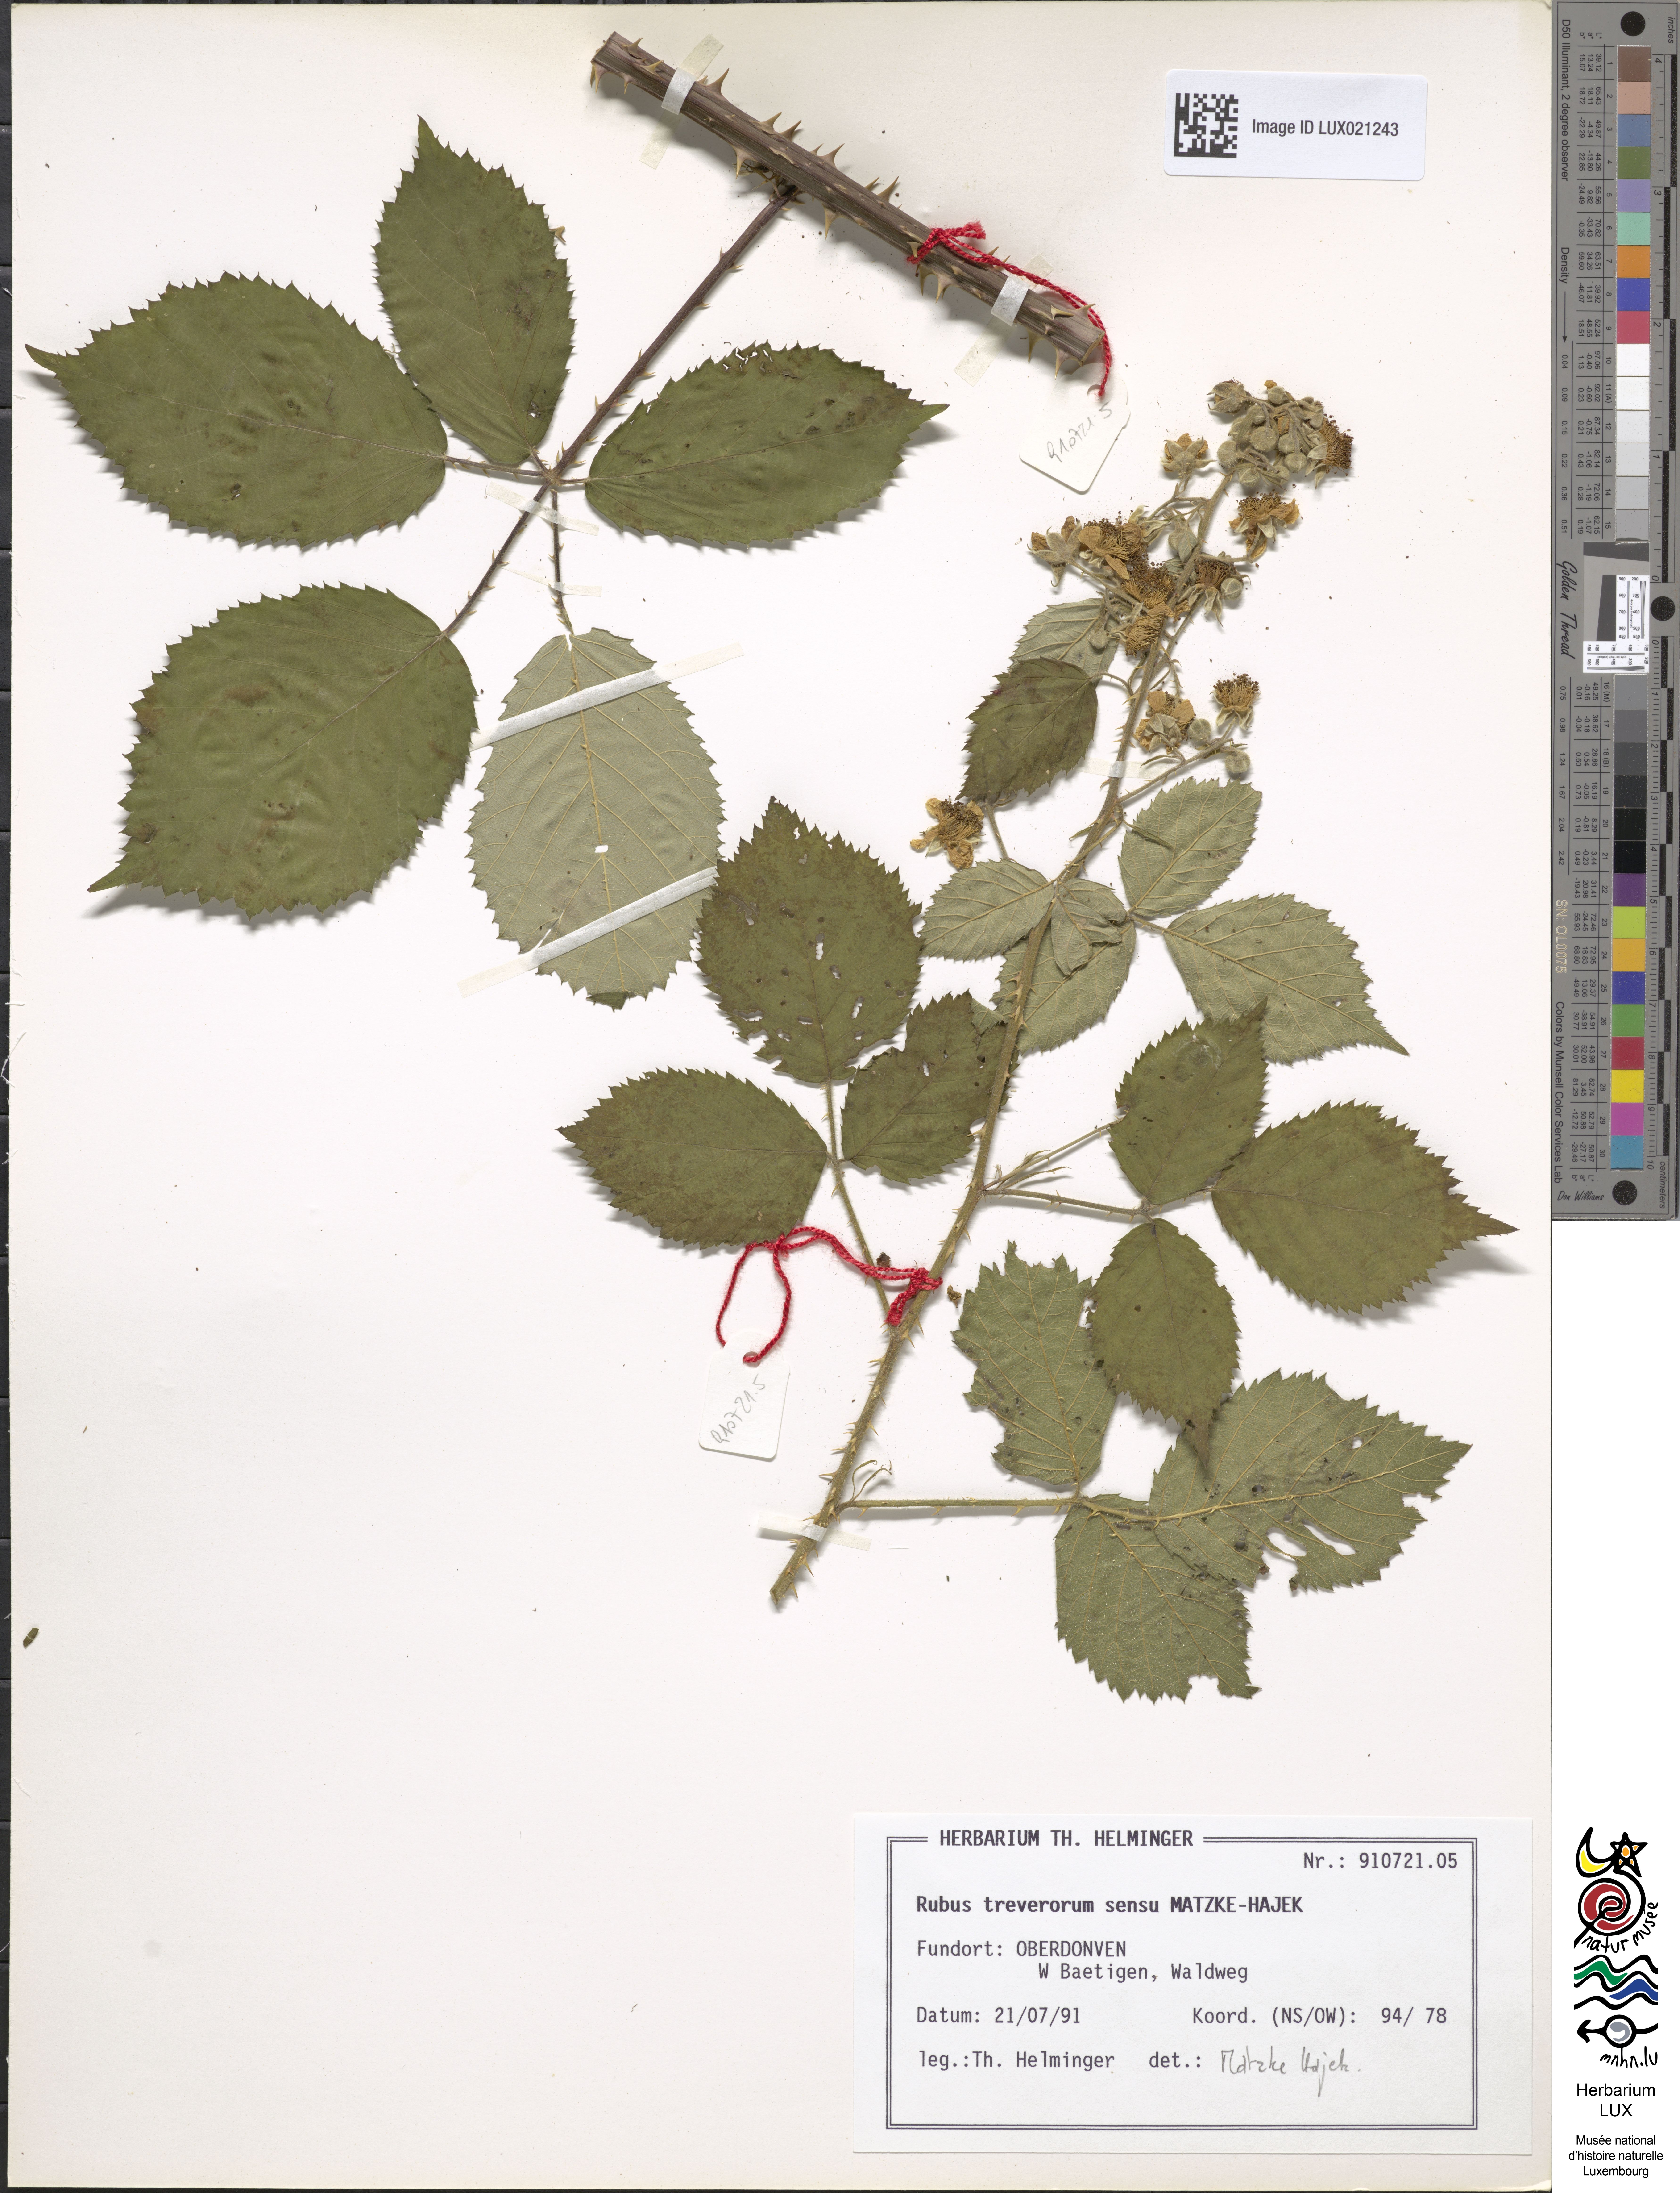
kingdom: Plantae
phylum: Tracheophyta
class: Magnoliopsida
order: Rosales
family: Rosaceae
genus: Rubus
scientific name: Rubus
